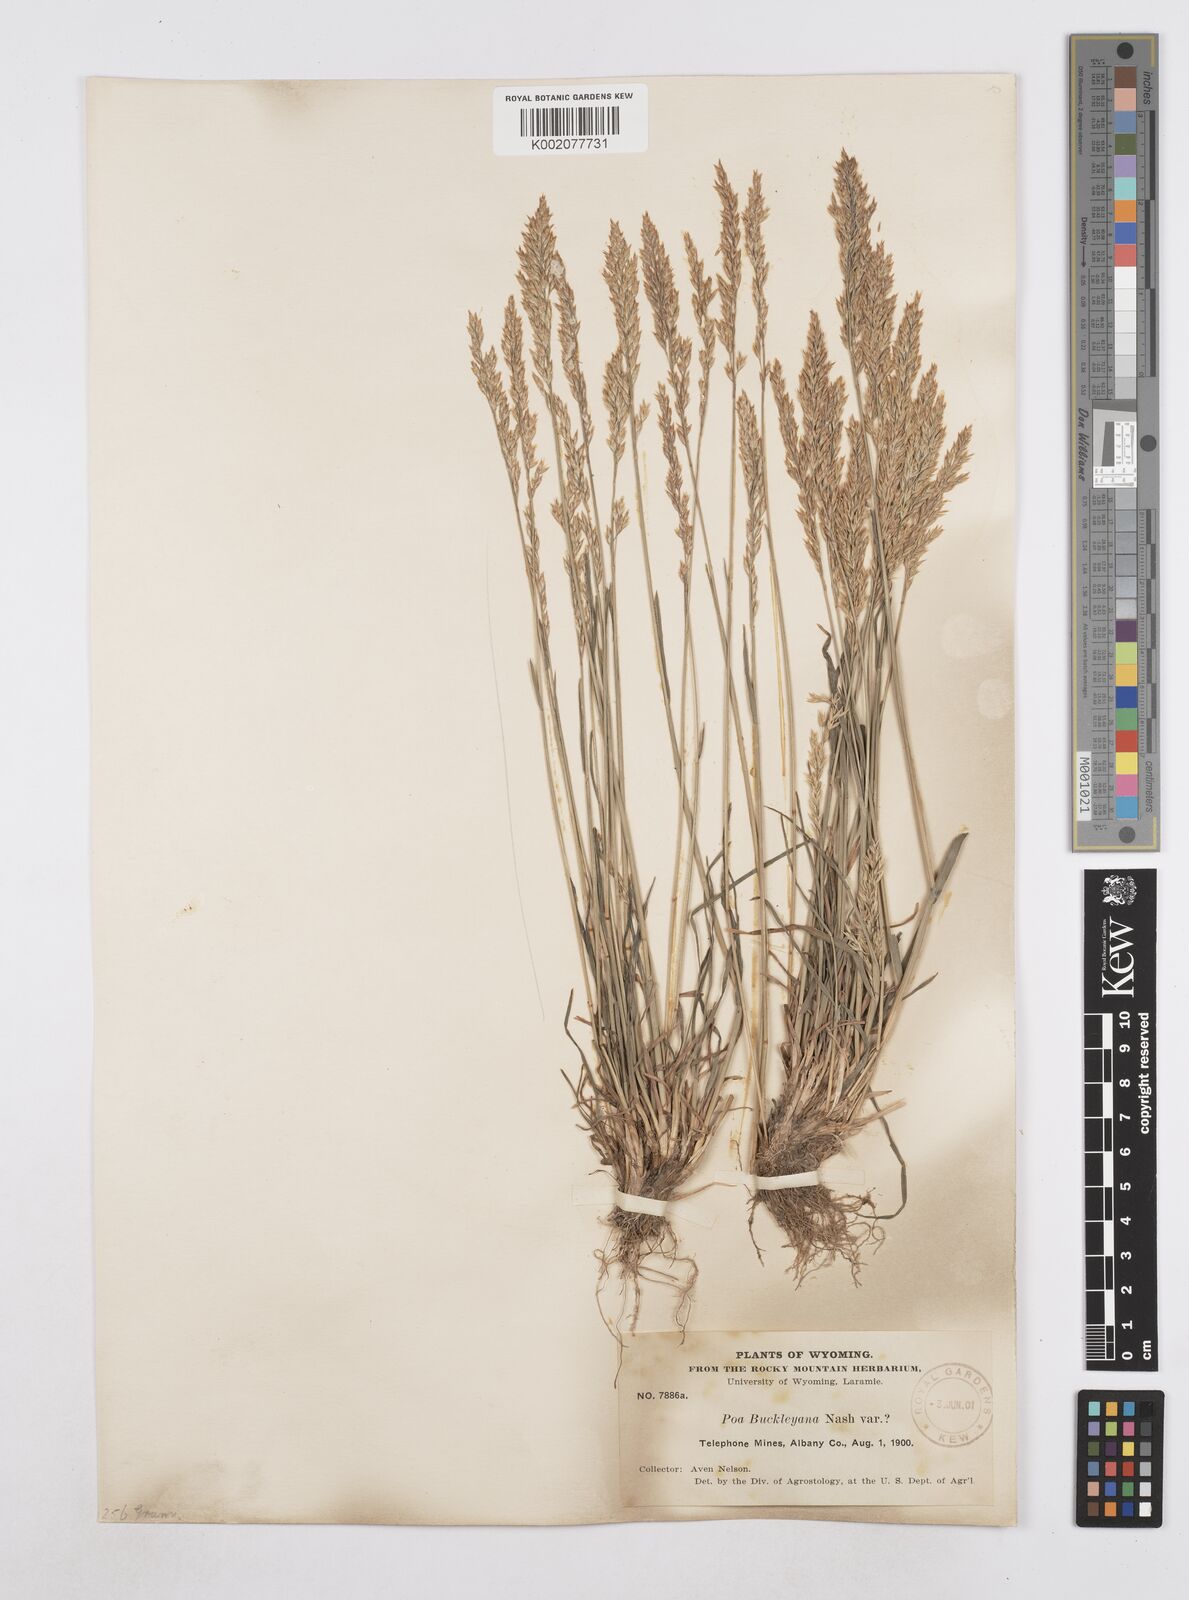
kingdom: Plantae
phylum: Tracheophyta
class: Liliopsida
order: Poales
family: Poaceae
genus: Poa
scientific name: Poa secunda
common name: Sandberg bluegrass
